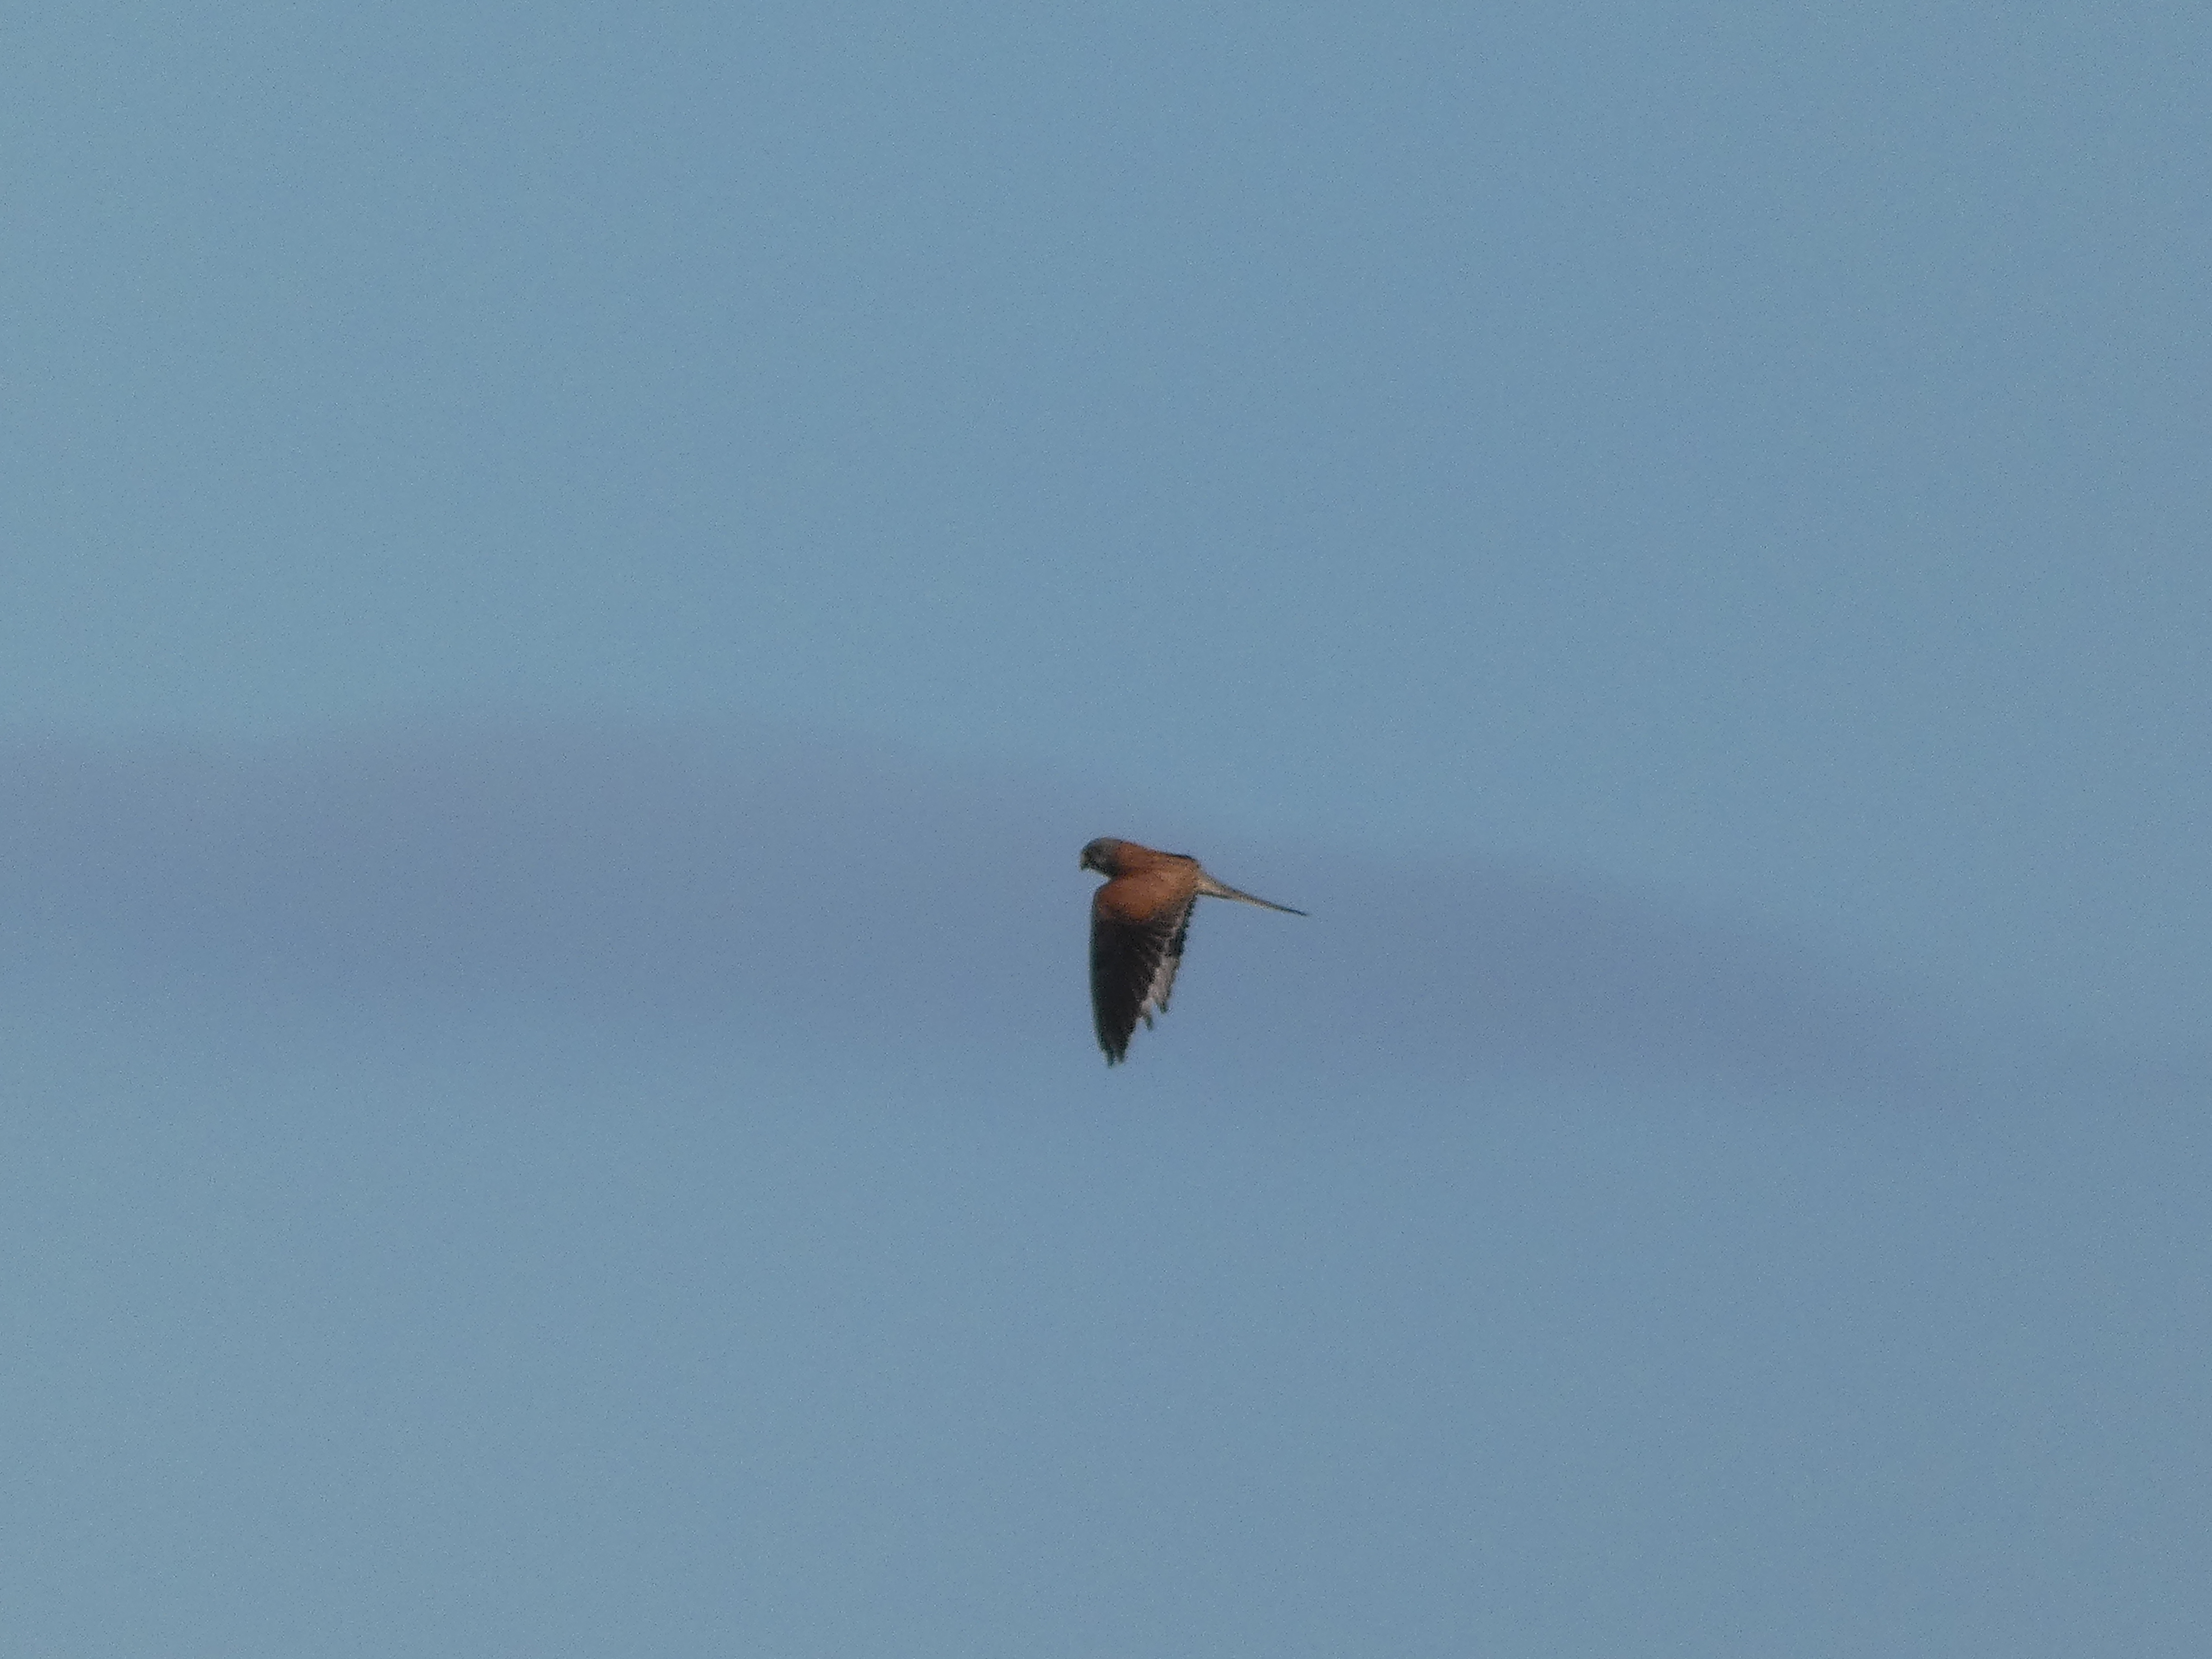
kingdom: Animalia
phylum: Chordata
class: Aves
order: Falconiformes
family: Falconidae
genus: Falco
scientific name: Falco tinnunculus
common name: Tårnfalk
